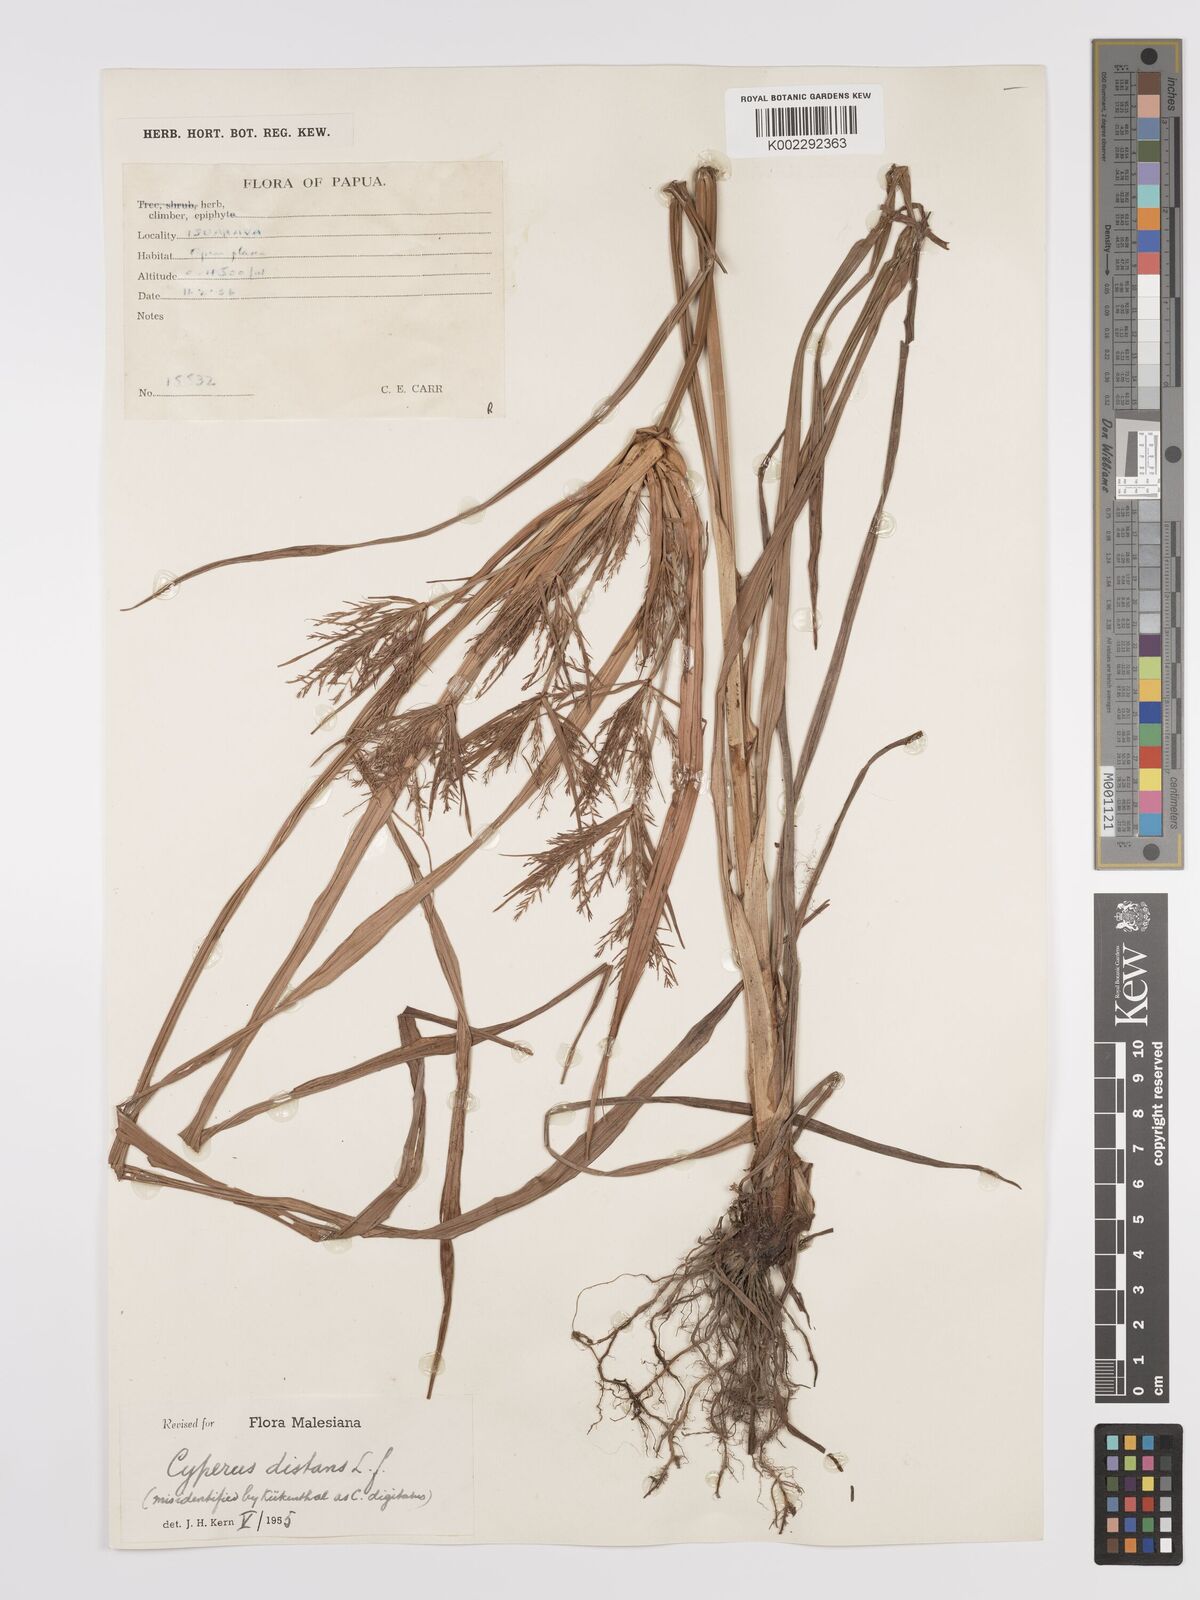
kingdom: Plantae
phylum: Tracheophyta
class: Liliopsida
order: Poales
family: Cyperaceae
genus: Cyperus
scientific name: Cyperus distans
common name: Slender cyperus
